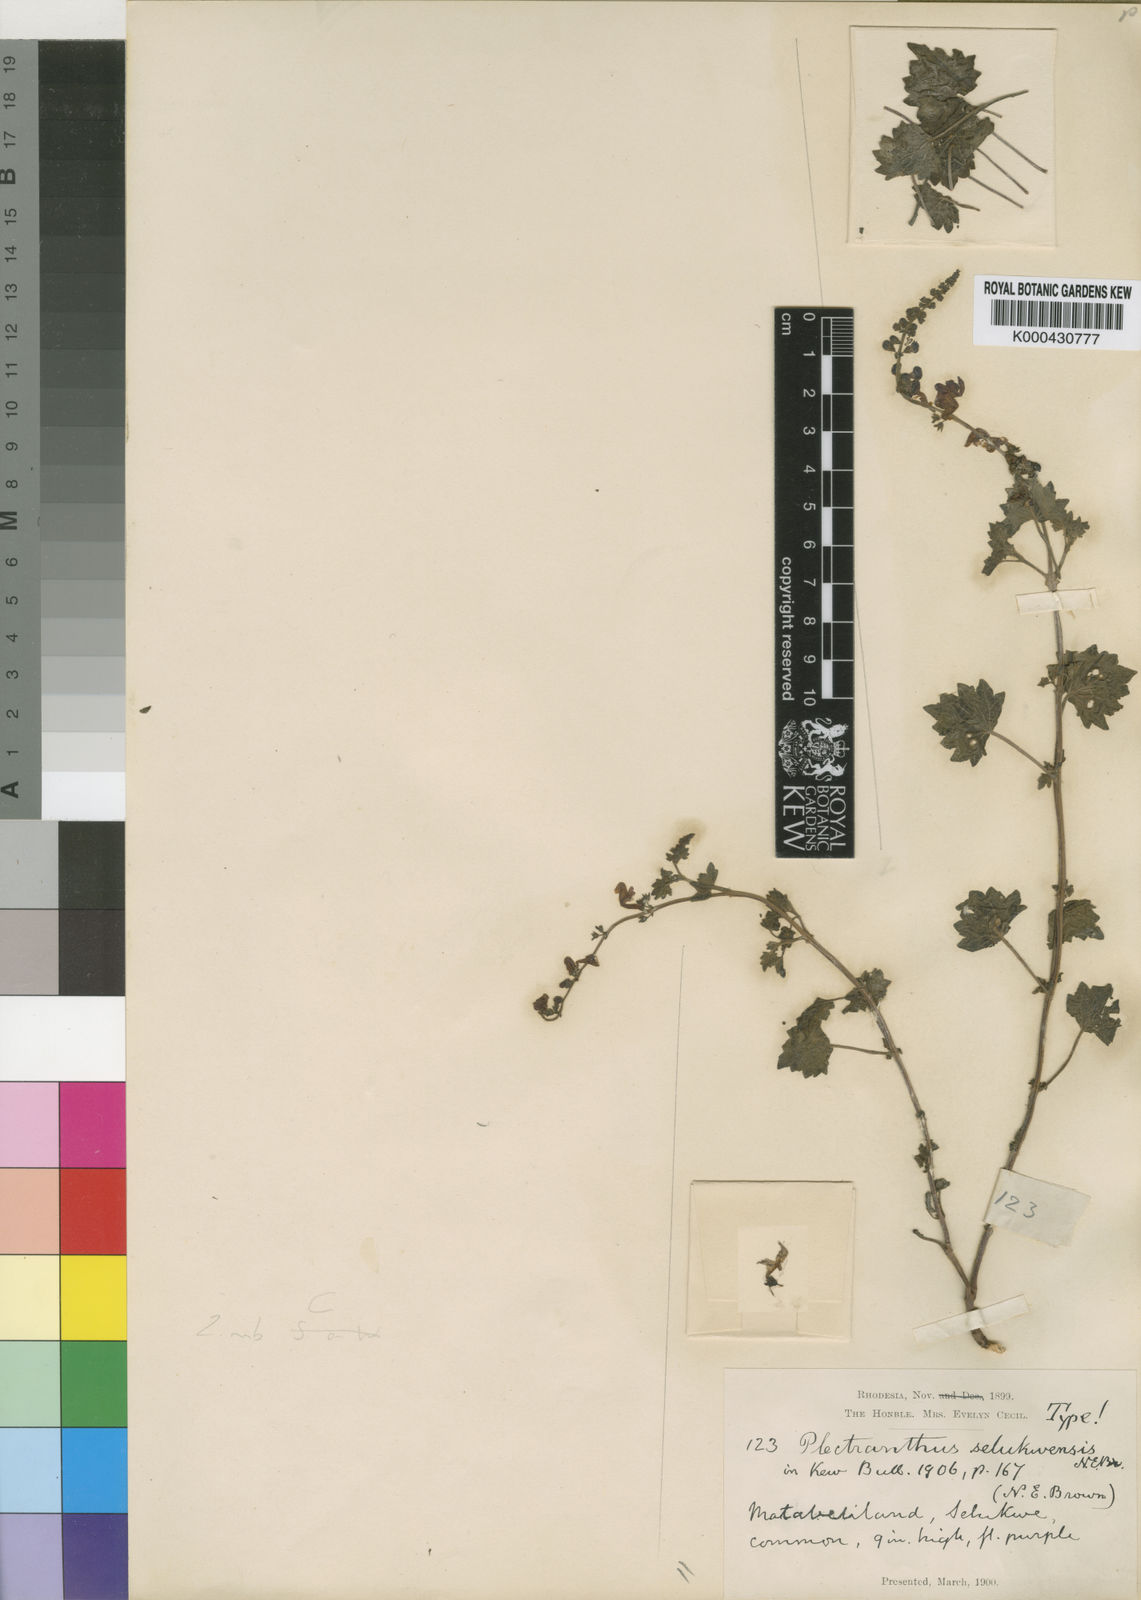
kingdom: Plantae
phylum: Tracheophyta
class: Magnoliopsida
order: Lamiales
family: Lamiaceae
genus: Equilabium
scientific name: Equilabium selukwense
